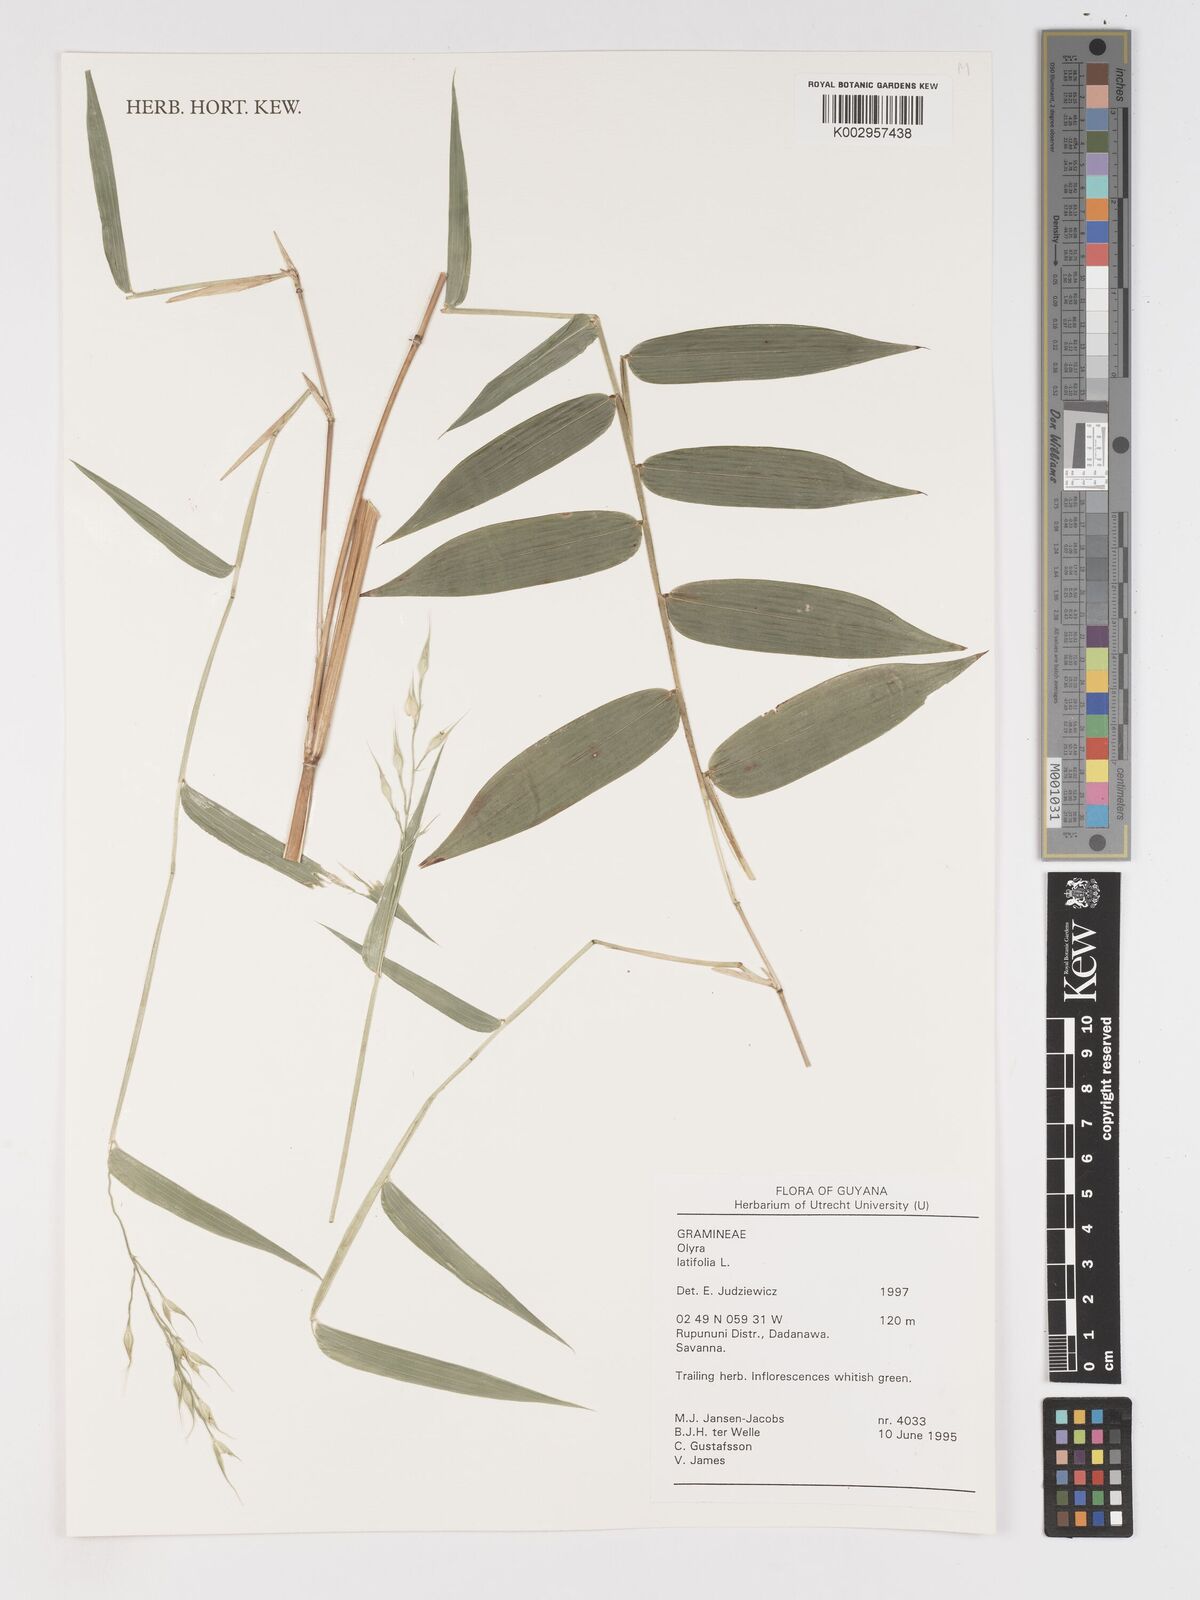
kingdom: Plantae
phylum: Tracheophyta
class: Liliopsida
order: Poales
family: Poaceae
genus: Olyra
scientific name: Olyra latifolia
